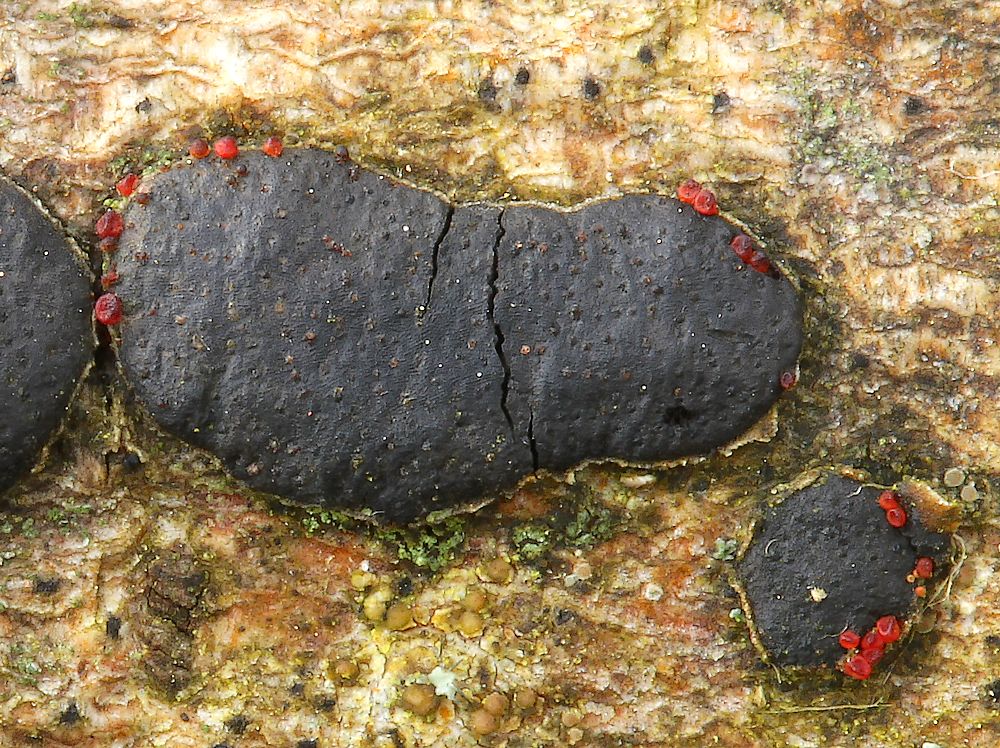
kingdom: Fungi
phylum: Ascomycota
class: Sordariomycetes
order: Hypocreales
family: Nectriaceae
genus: Dialonectria
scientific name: Dialonectria diatrypicola
